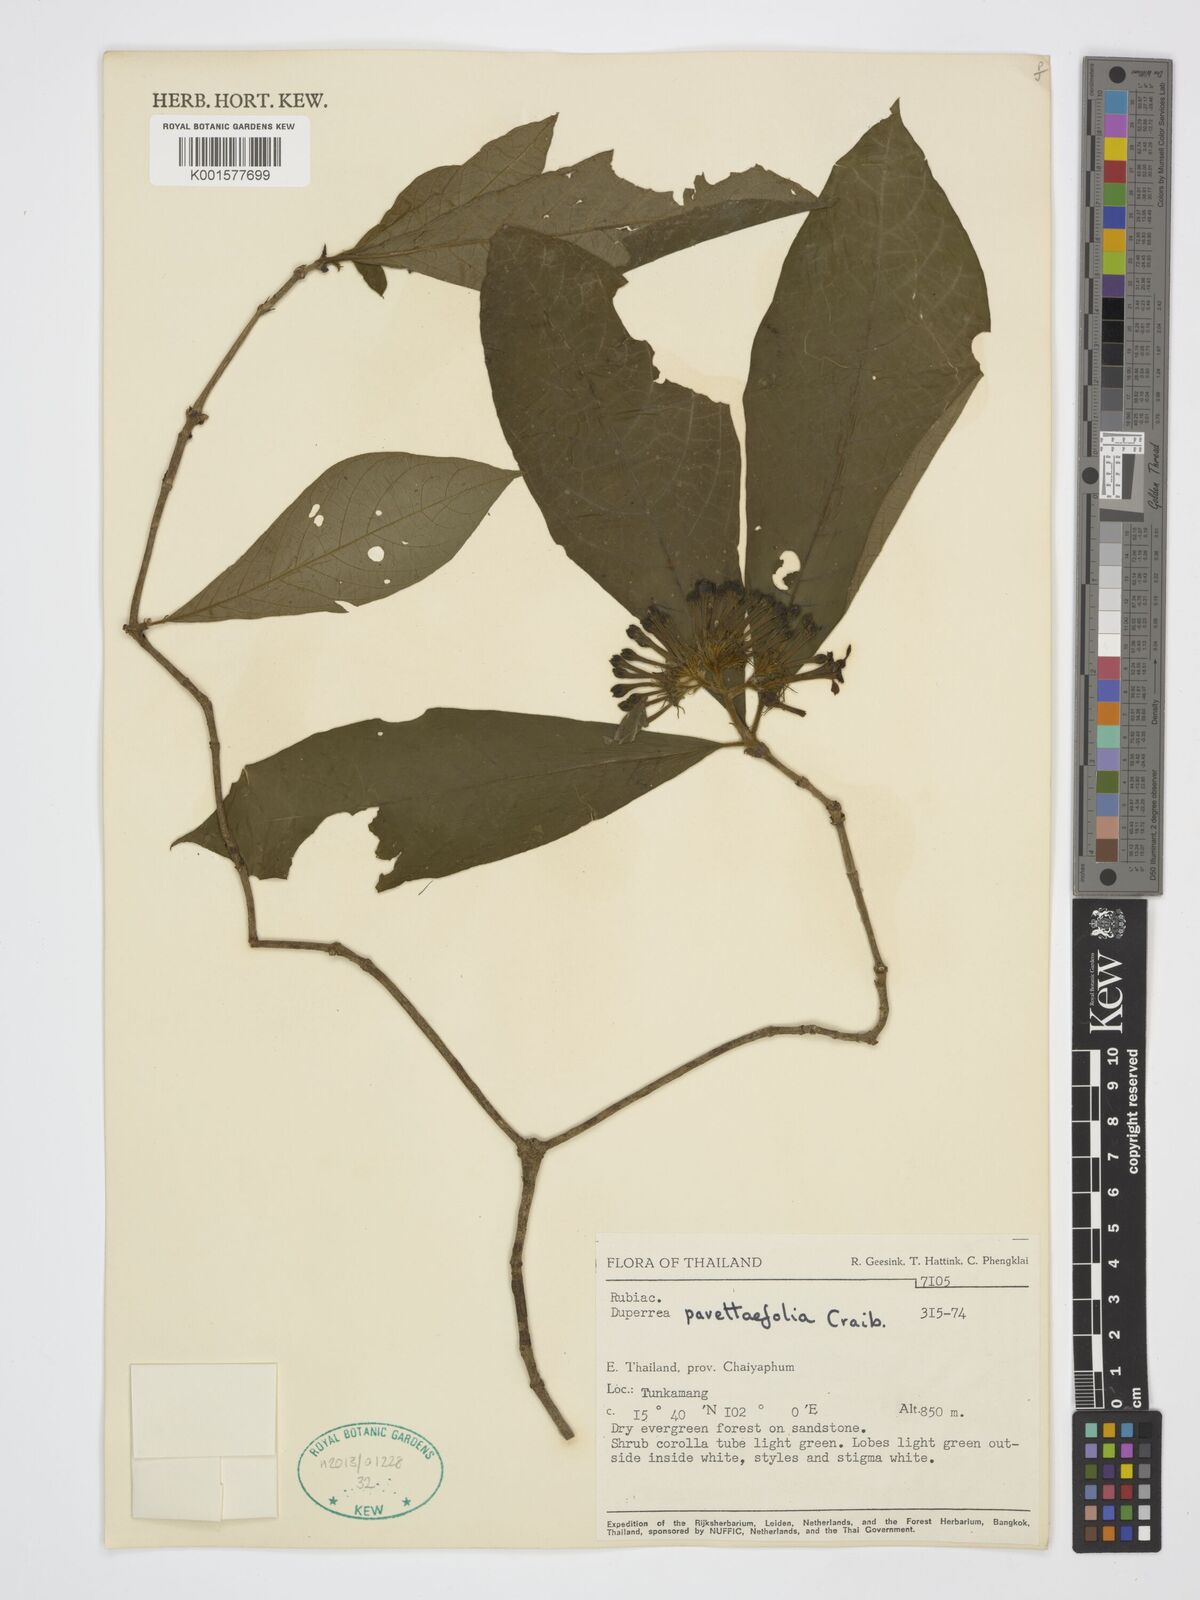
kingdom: Plantae
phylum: Tracheophyta
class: Magnoliopsida
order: Gentianales
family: Rubiaceae
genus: Duperrea
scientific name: Duperrea pavettifolia
